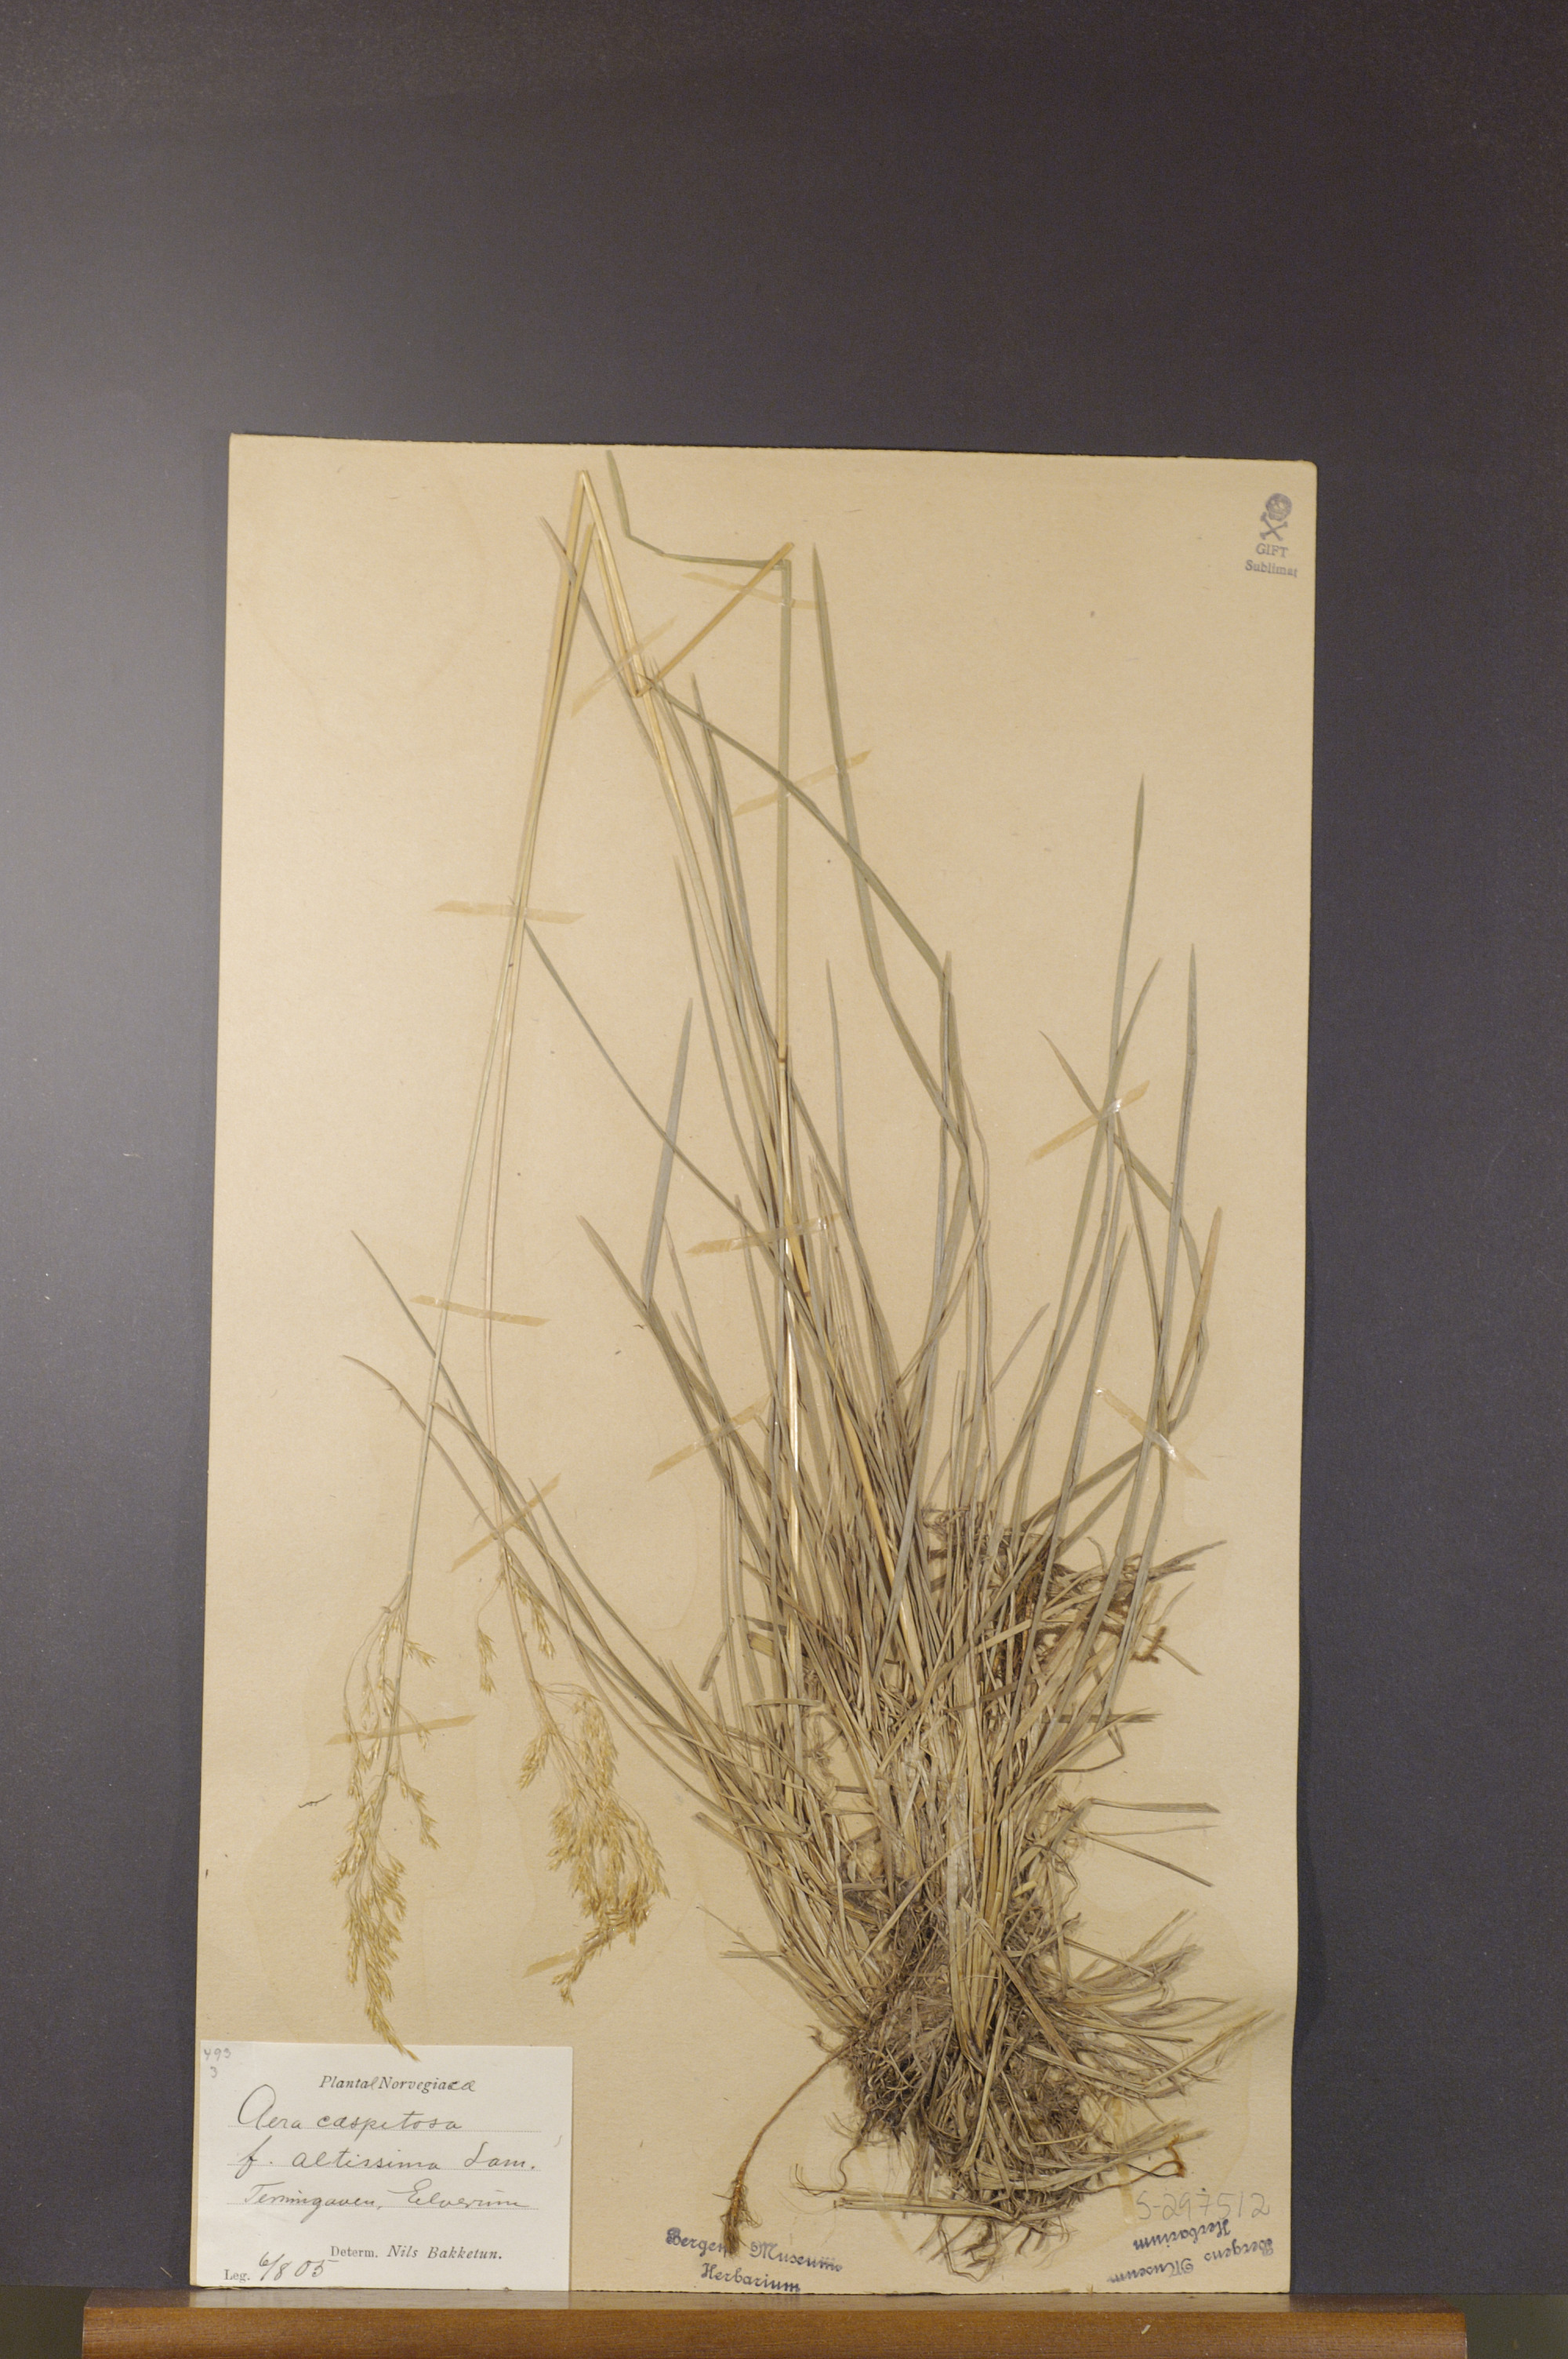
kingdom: Plantae
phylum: Tracheophyta
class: Liliopsida
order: Poales
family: Poaceae
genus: Deschampsia
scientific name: Deschampsia cespitosa
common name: Tufted hair-grass
